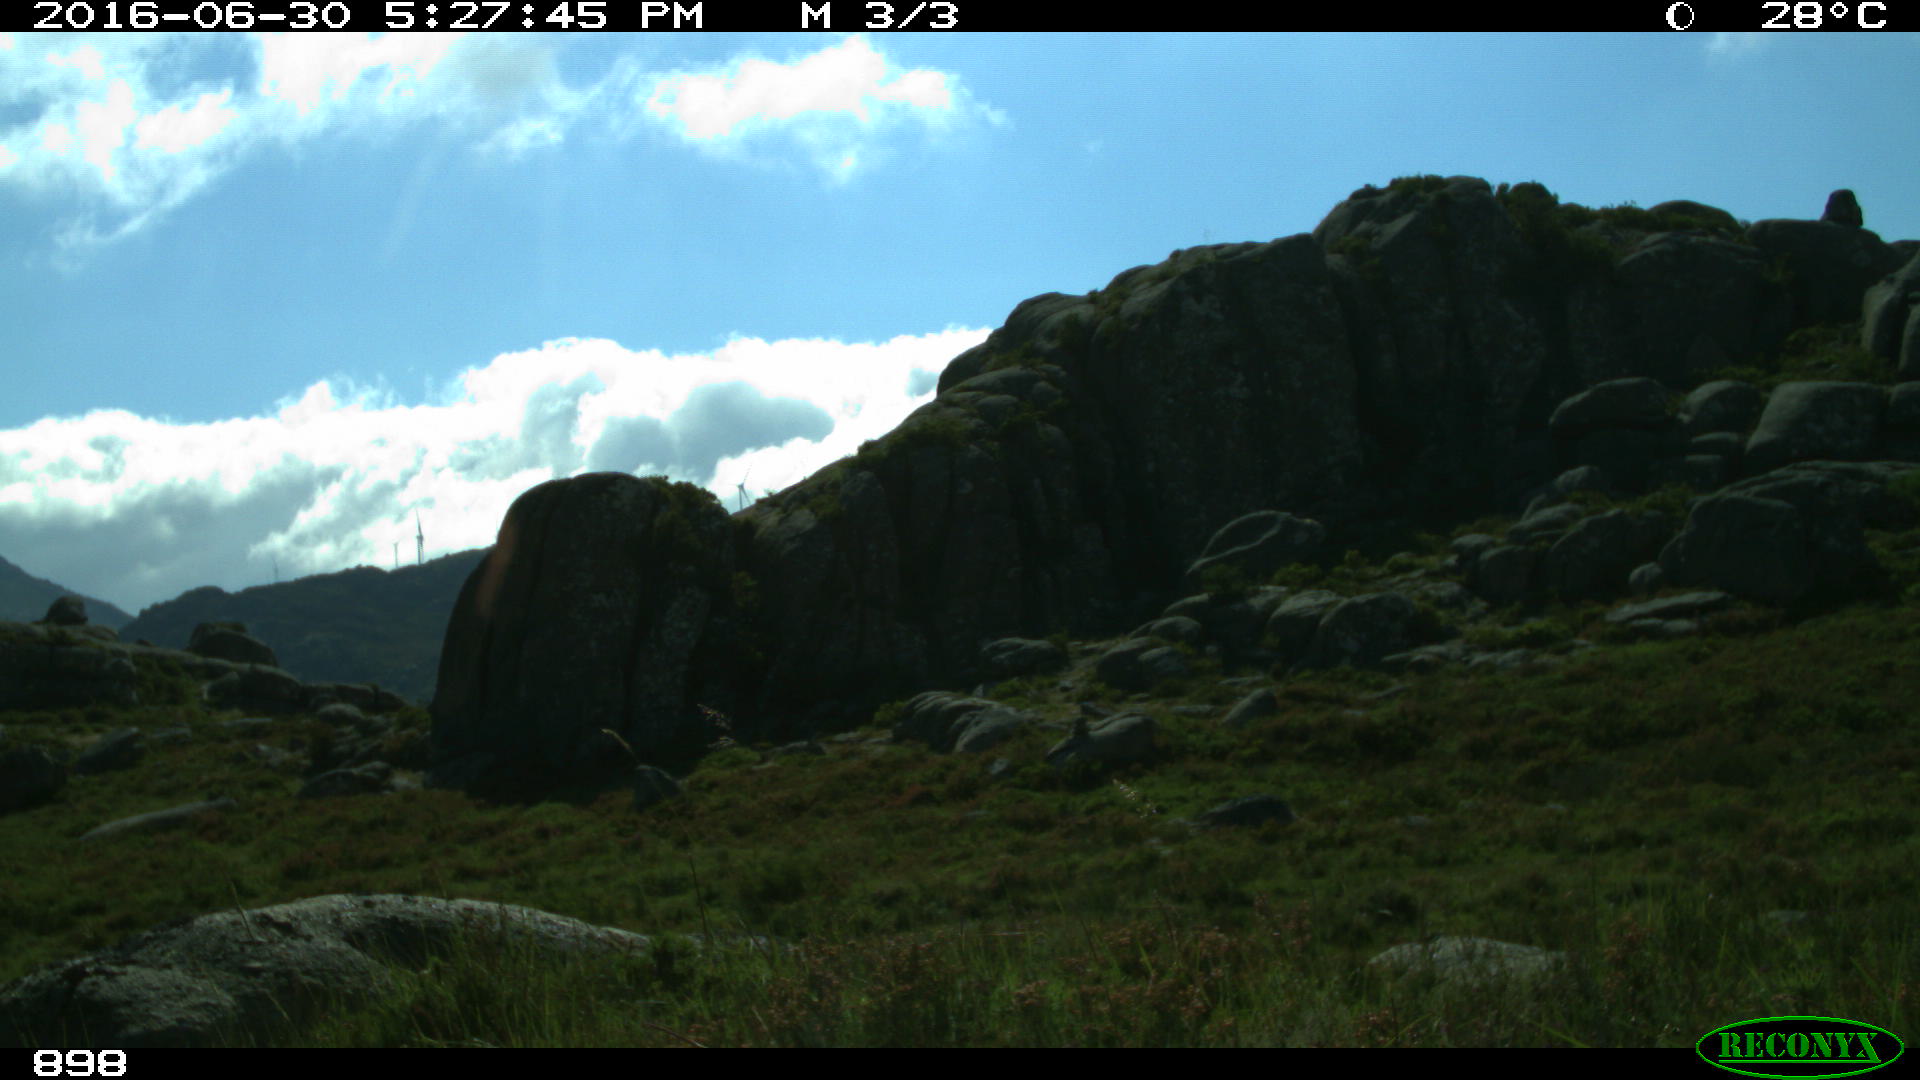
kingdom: Animalia
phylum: Chordata
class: Mammalia
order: Perissodactyla
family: Equidae
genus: Equus
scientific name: Equus caballus
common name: Horse
